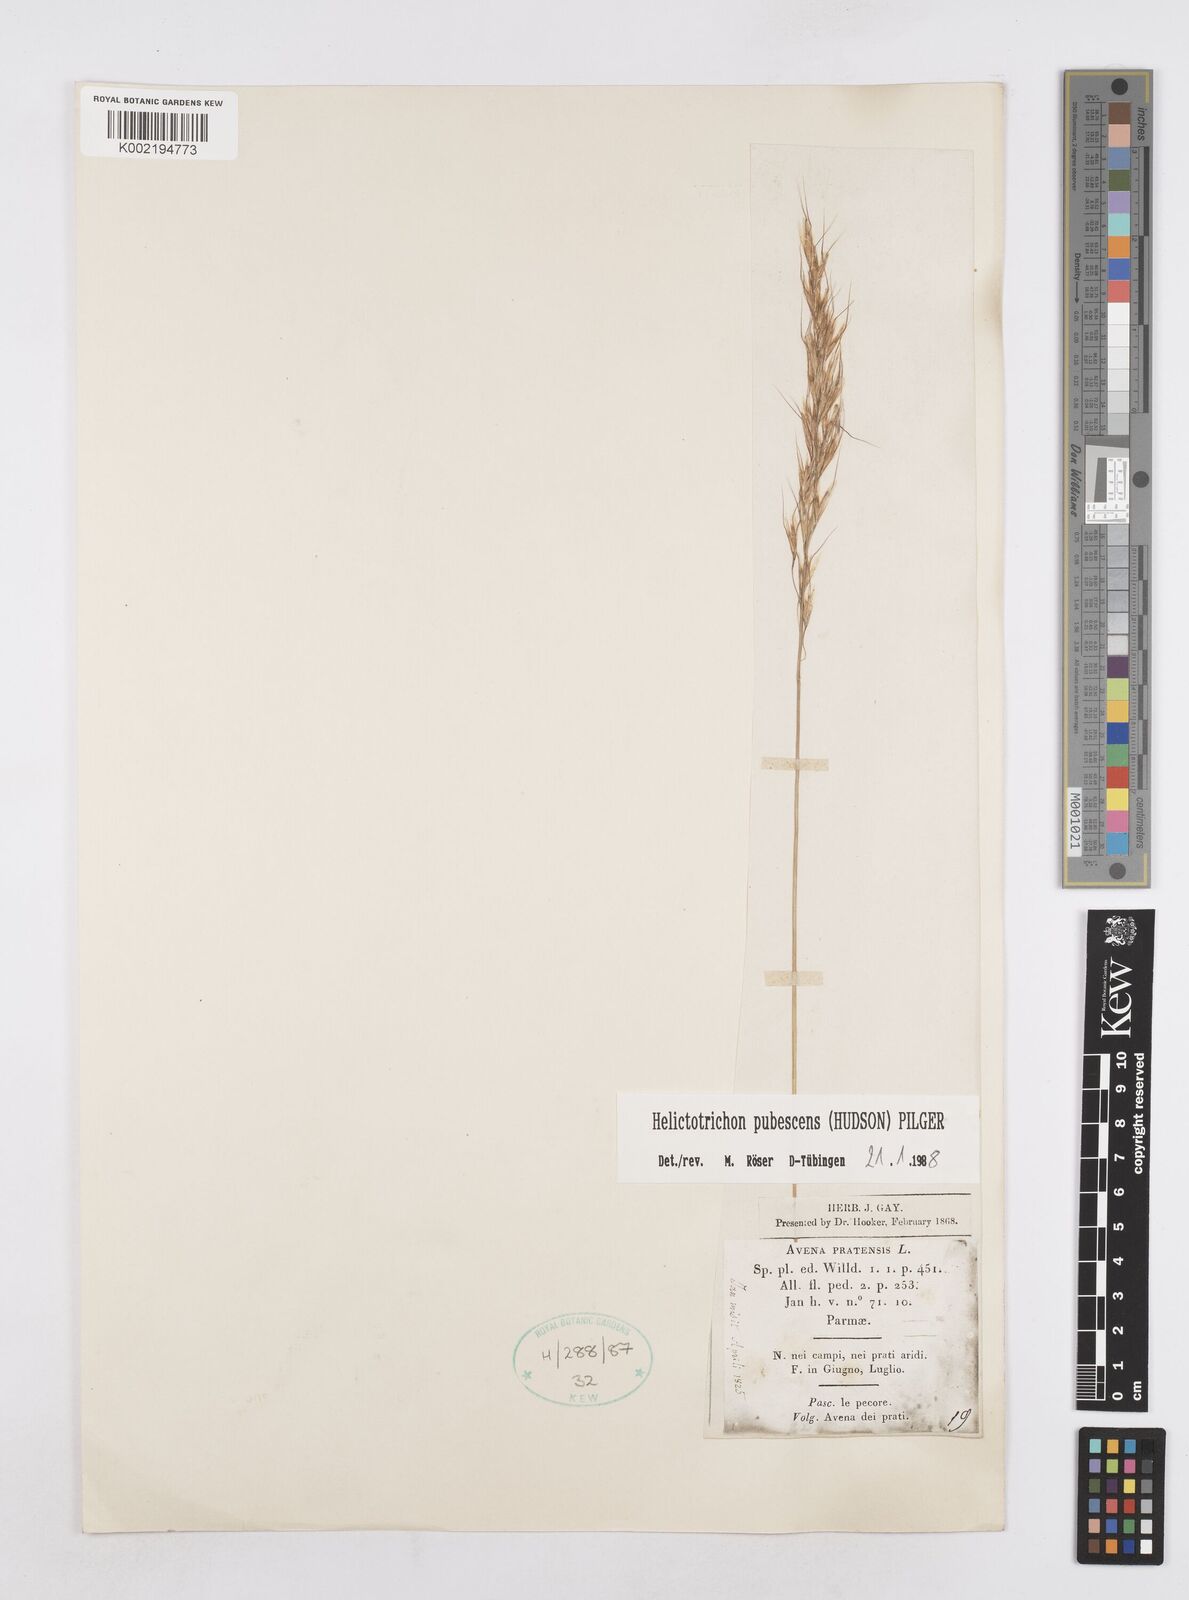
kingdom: Plantae
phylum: Tracheophyta
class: Liliopsida
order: Poales
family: Poaceae
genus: Avenula
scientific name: Avenula pubescens
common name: Downy alpine oatgrass
